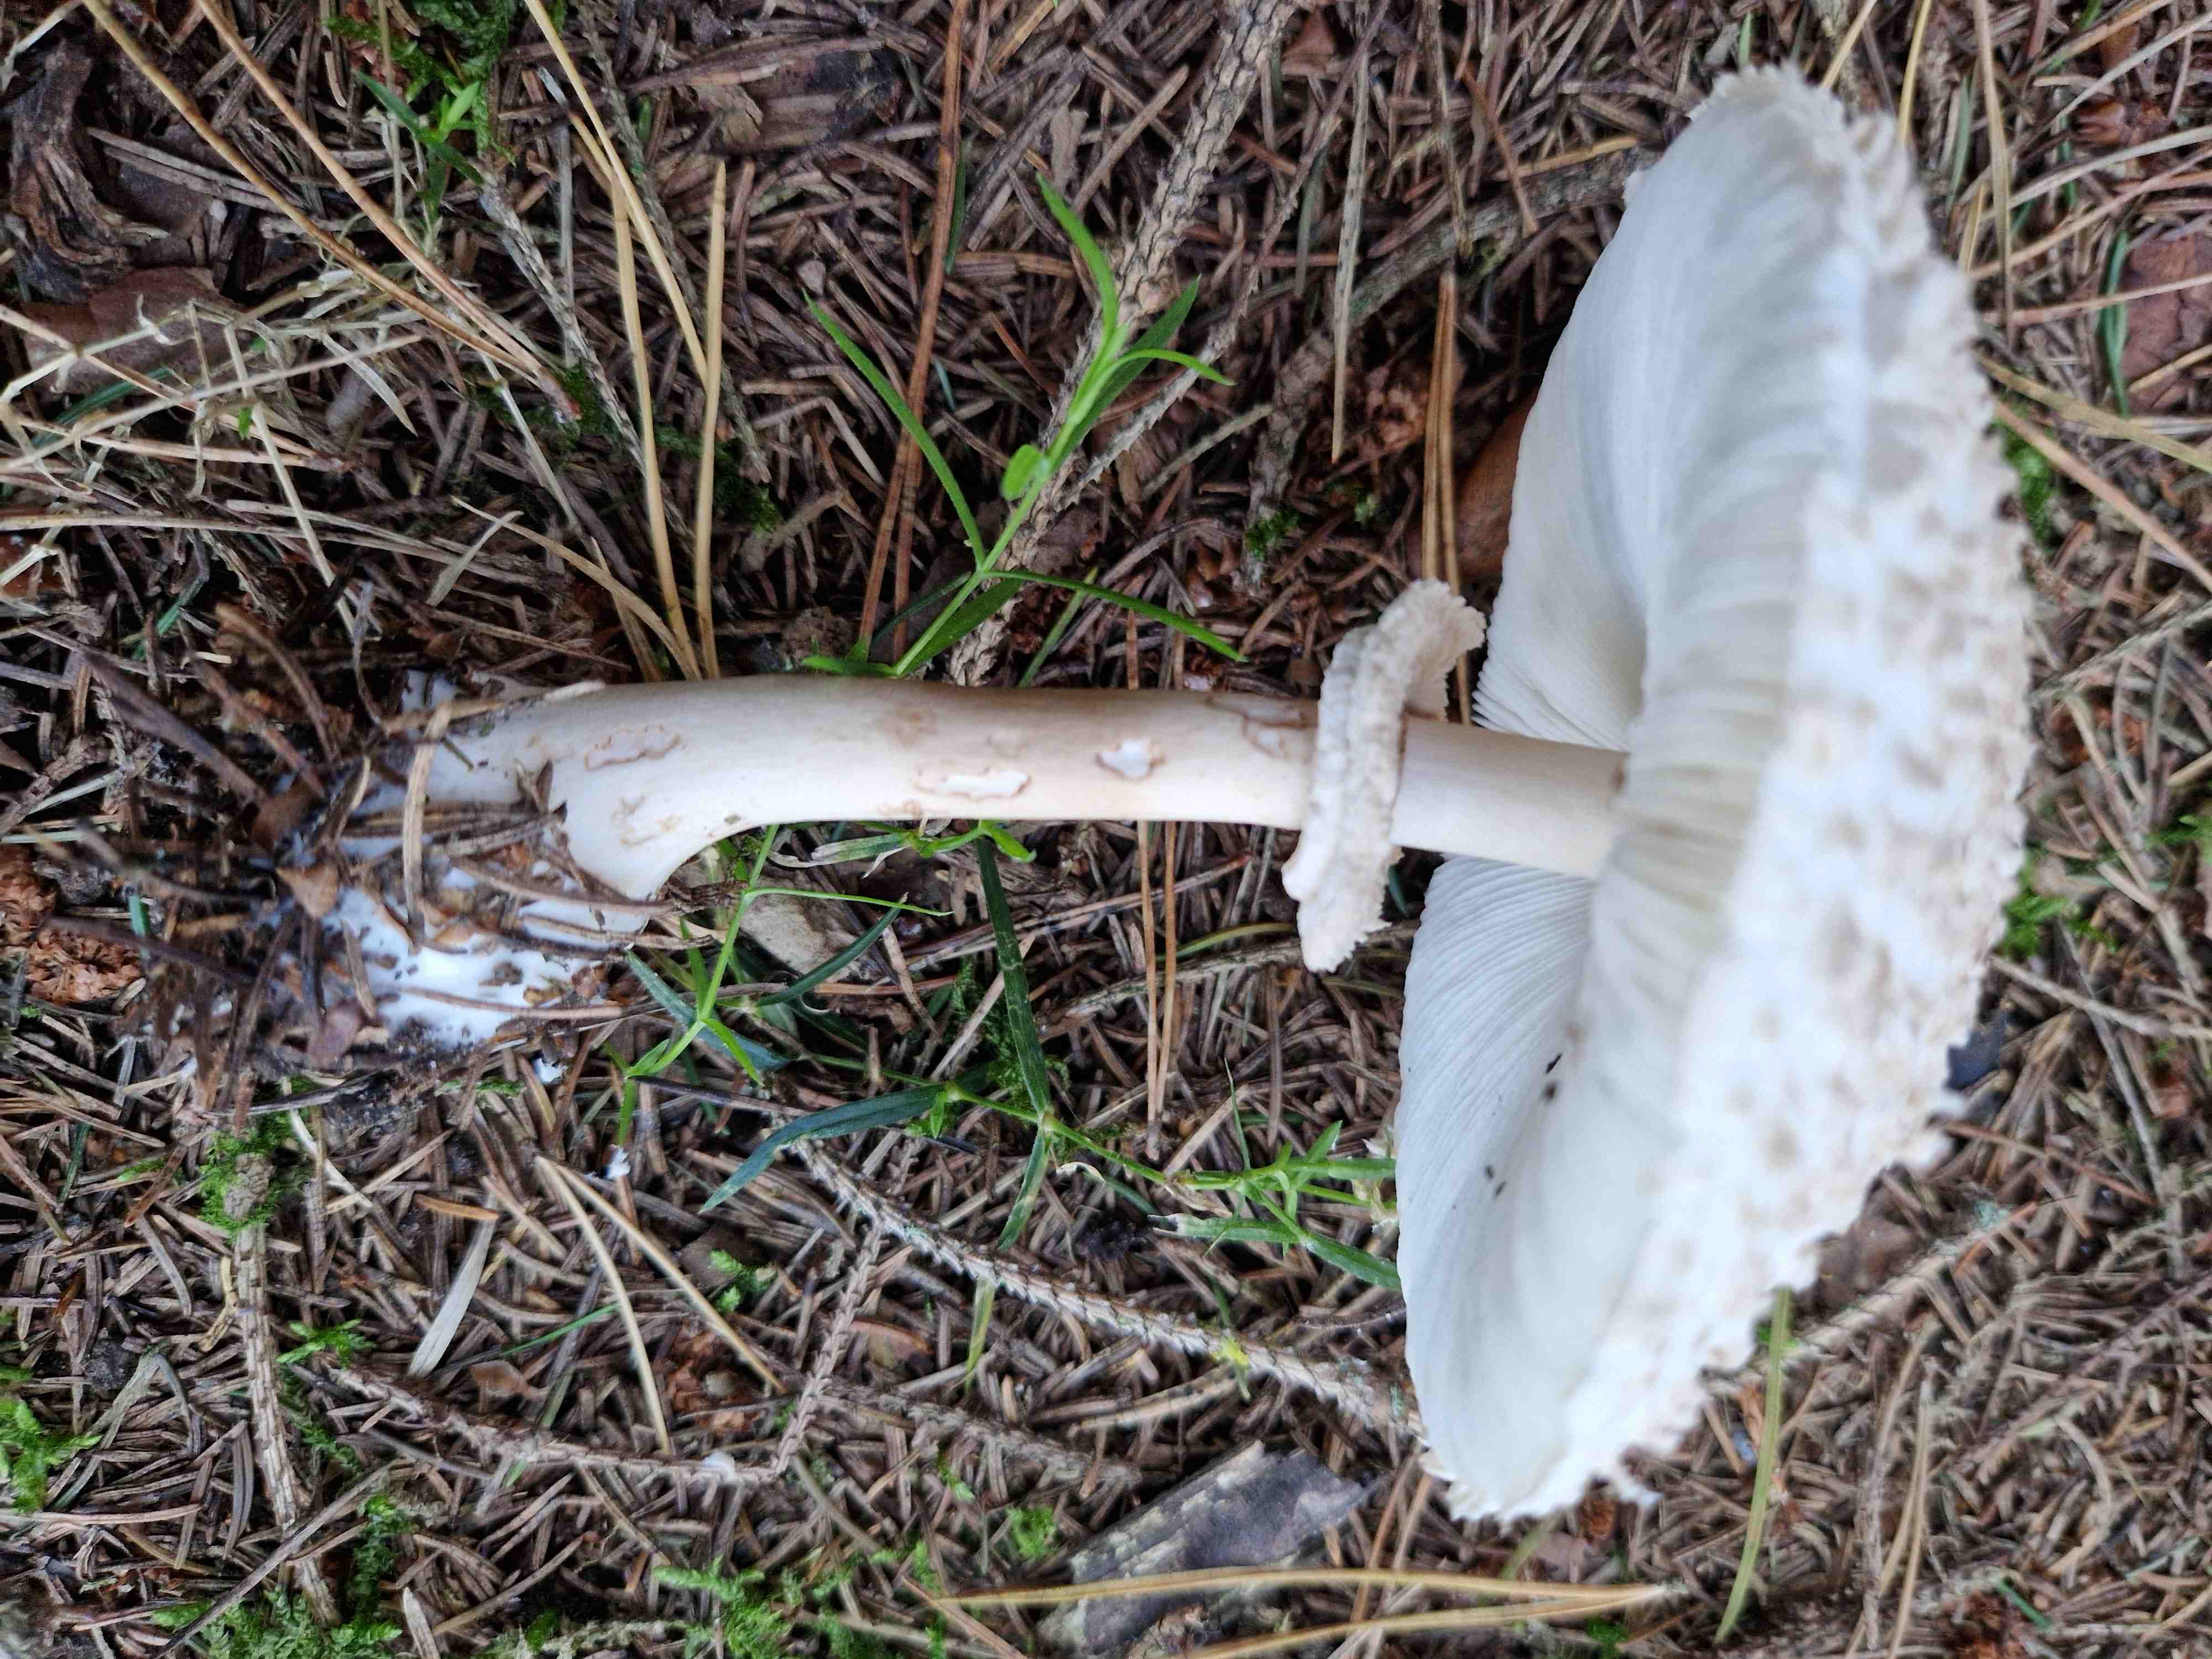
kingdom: Fungi
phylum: Basidiomycota
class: Agaricomycetes
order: Agaricales
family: Agaricaceae
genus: Leucoagaricus
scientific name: Leucoagaricus nympharum
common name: gran-silkehat
